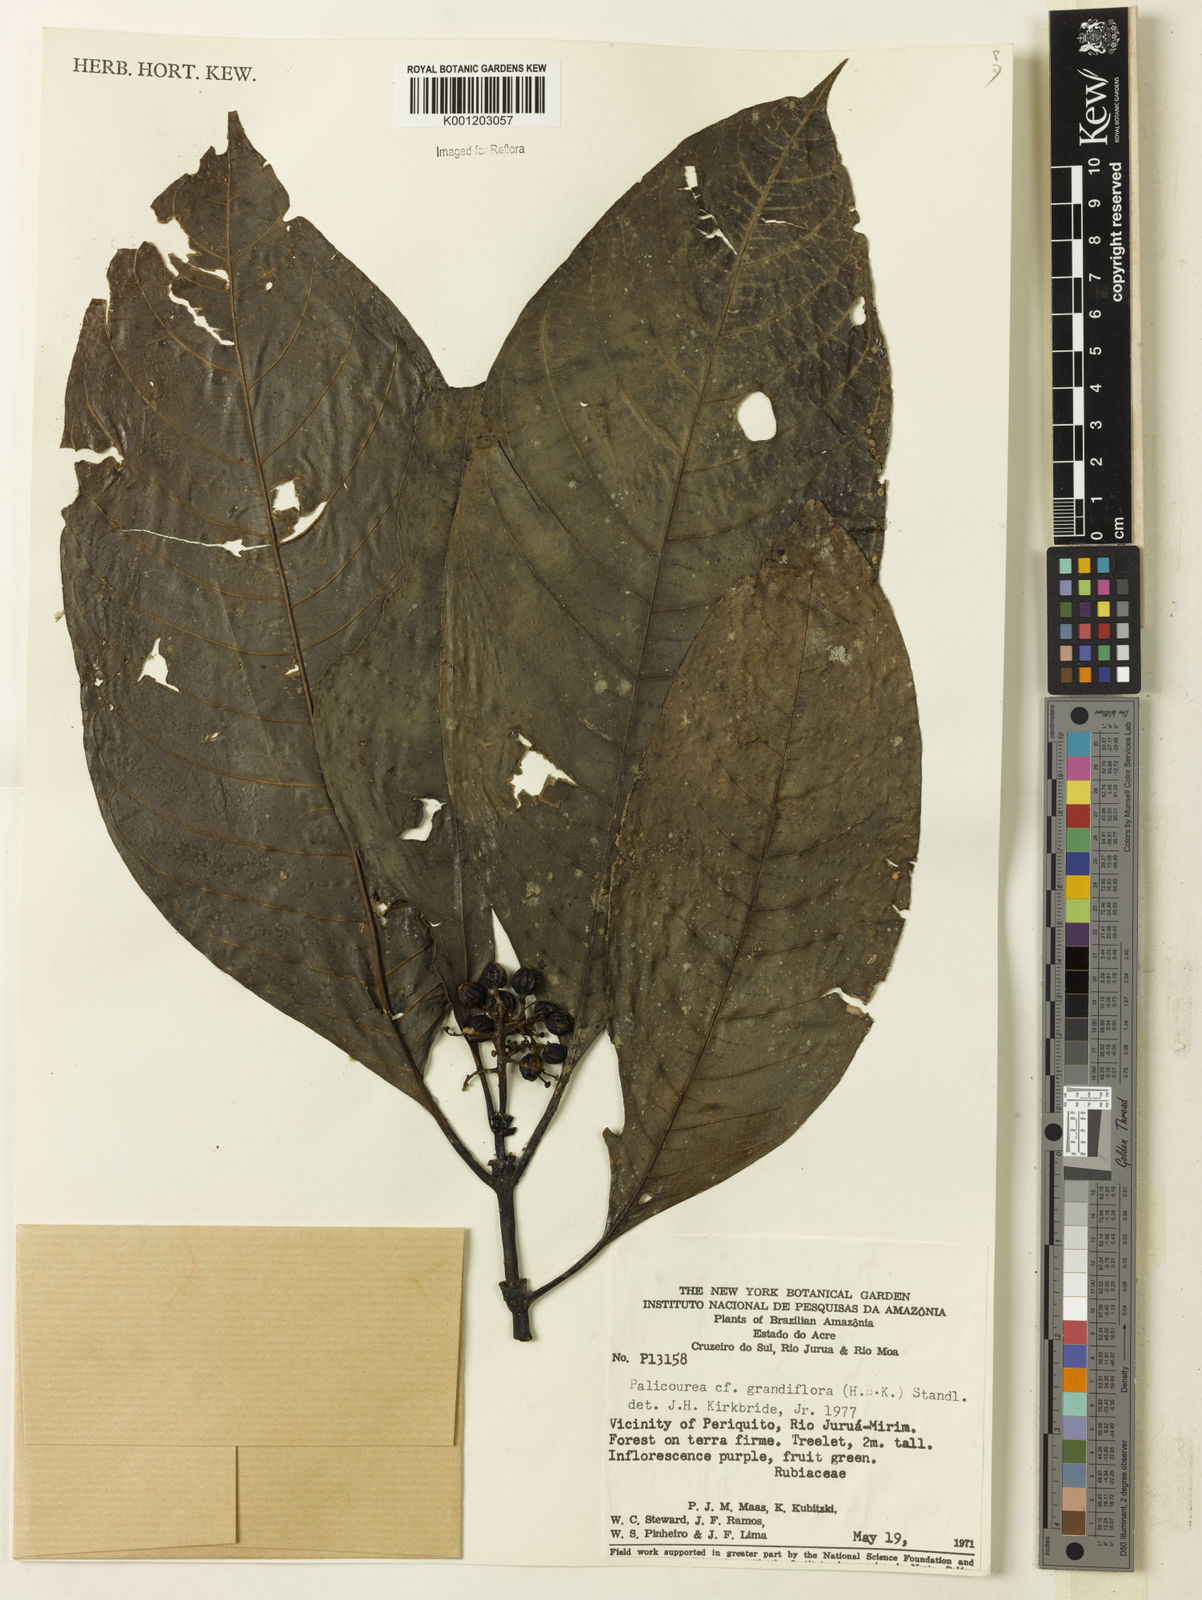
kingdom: Plantae
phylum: Tracheophyta
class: Magnoliopsida
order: Gentianales
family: Rubiaceae
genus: Palicourea
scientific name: Palicourea grandiflora
